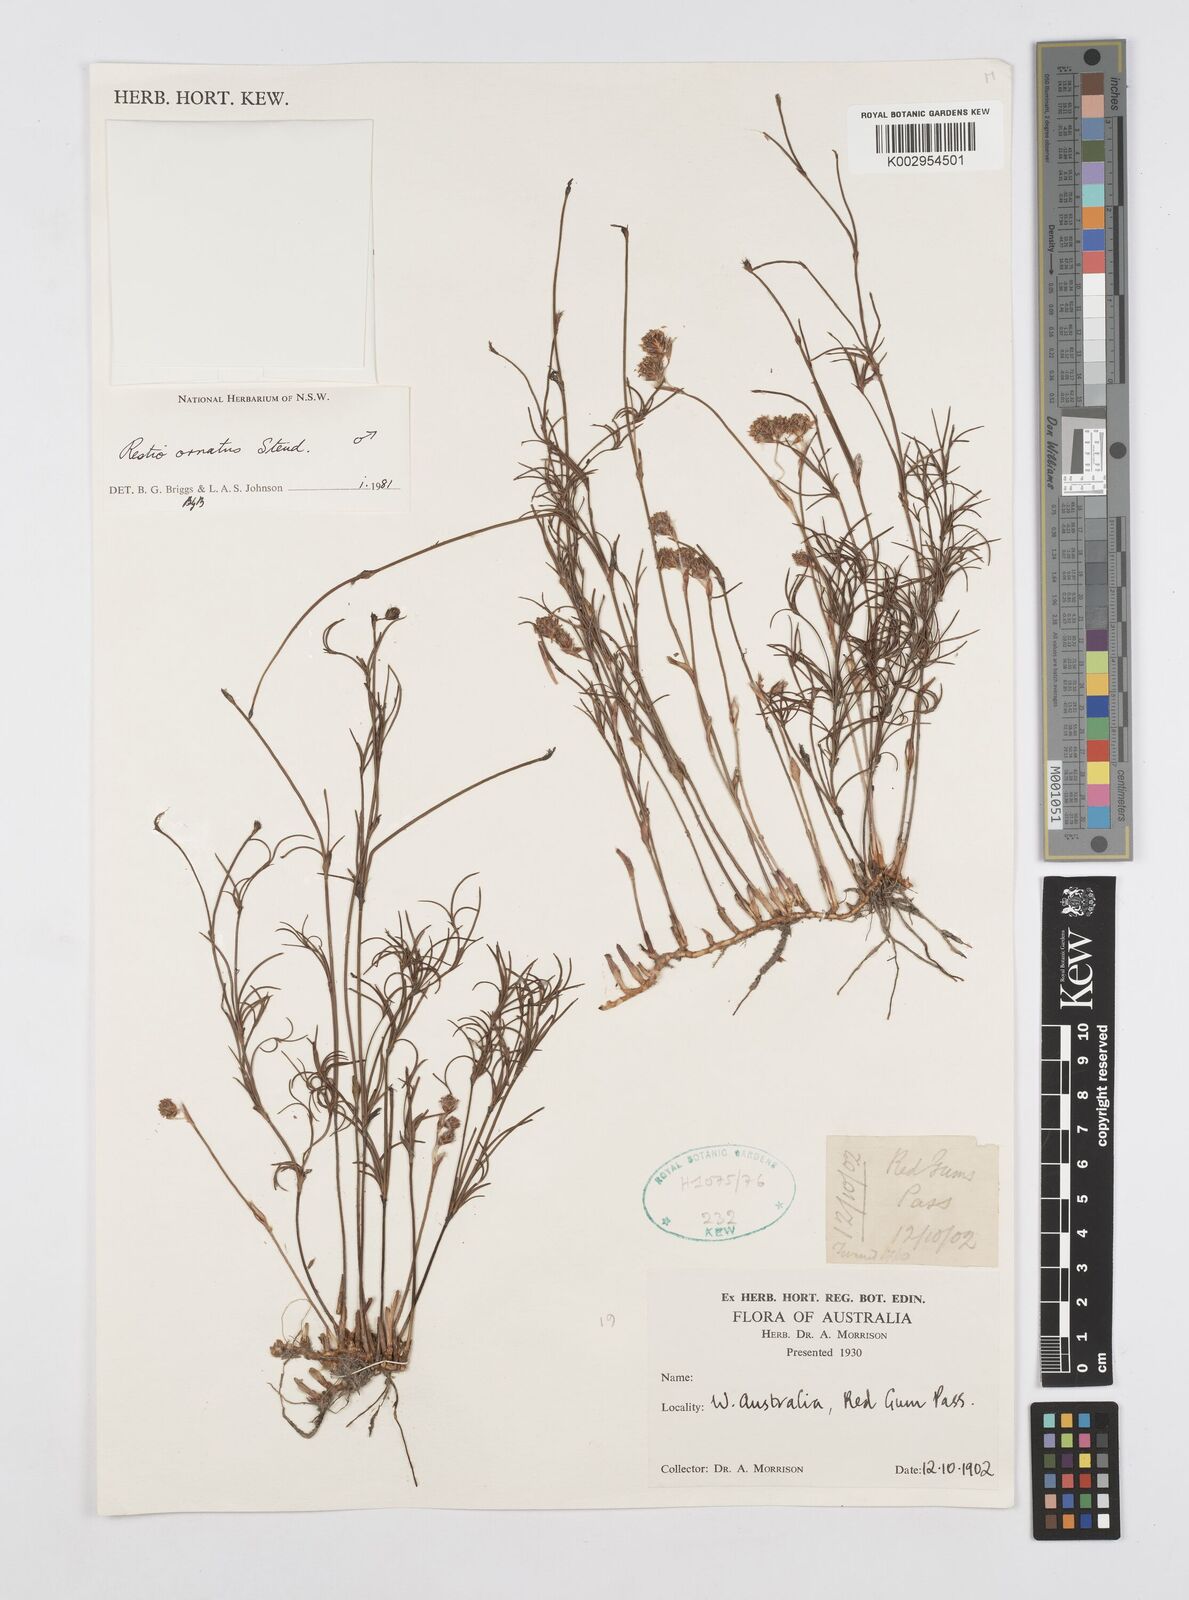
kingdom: Plantae
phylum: Tracheophyta
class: Liliopsida
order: Poales
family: Restionaceae
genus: Chordifex
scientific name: Chordifex ornatus
